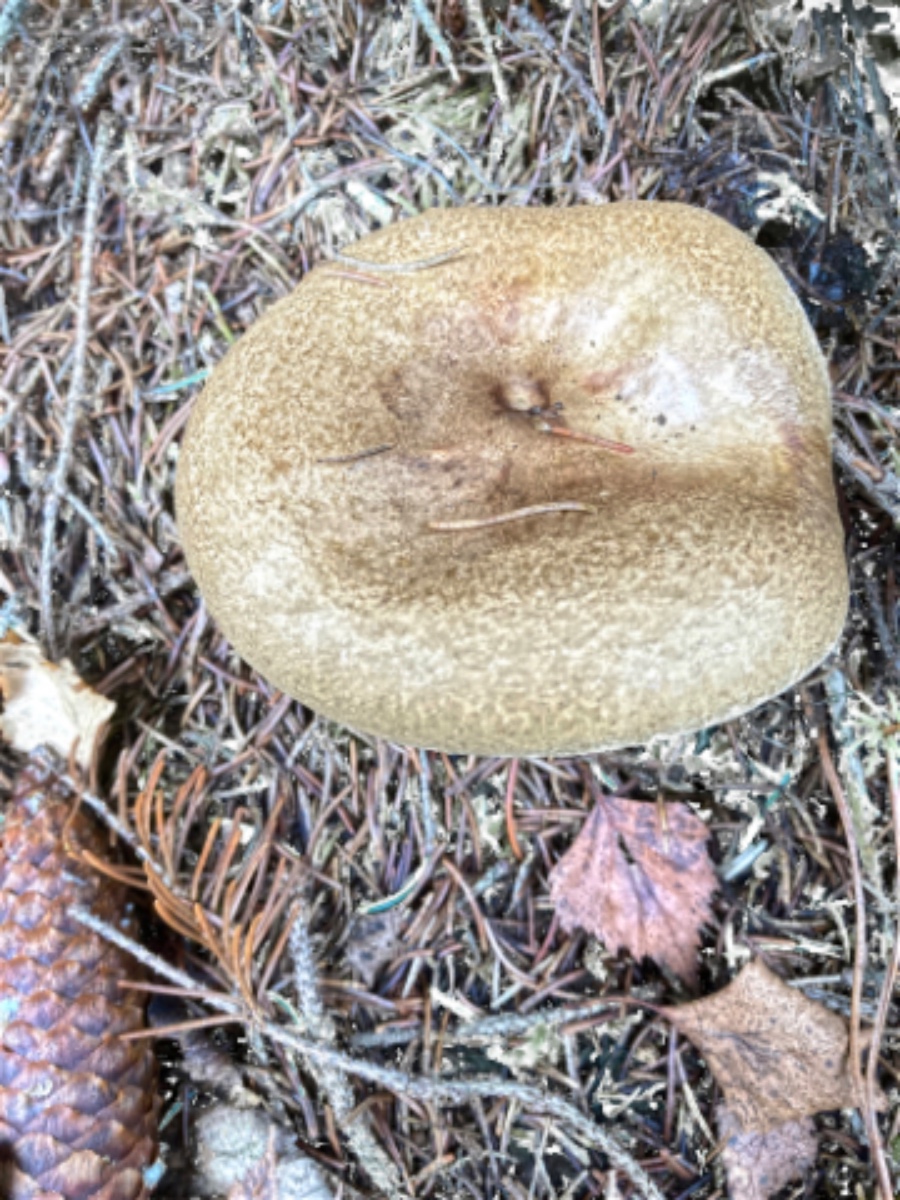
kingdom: Fungi
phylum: Basidiomycota
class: Agaricomycetes
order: Boletales
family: Paxillaceae
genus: Paxillus
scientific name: Paxillus involutus
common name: almindelig netbladhat
